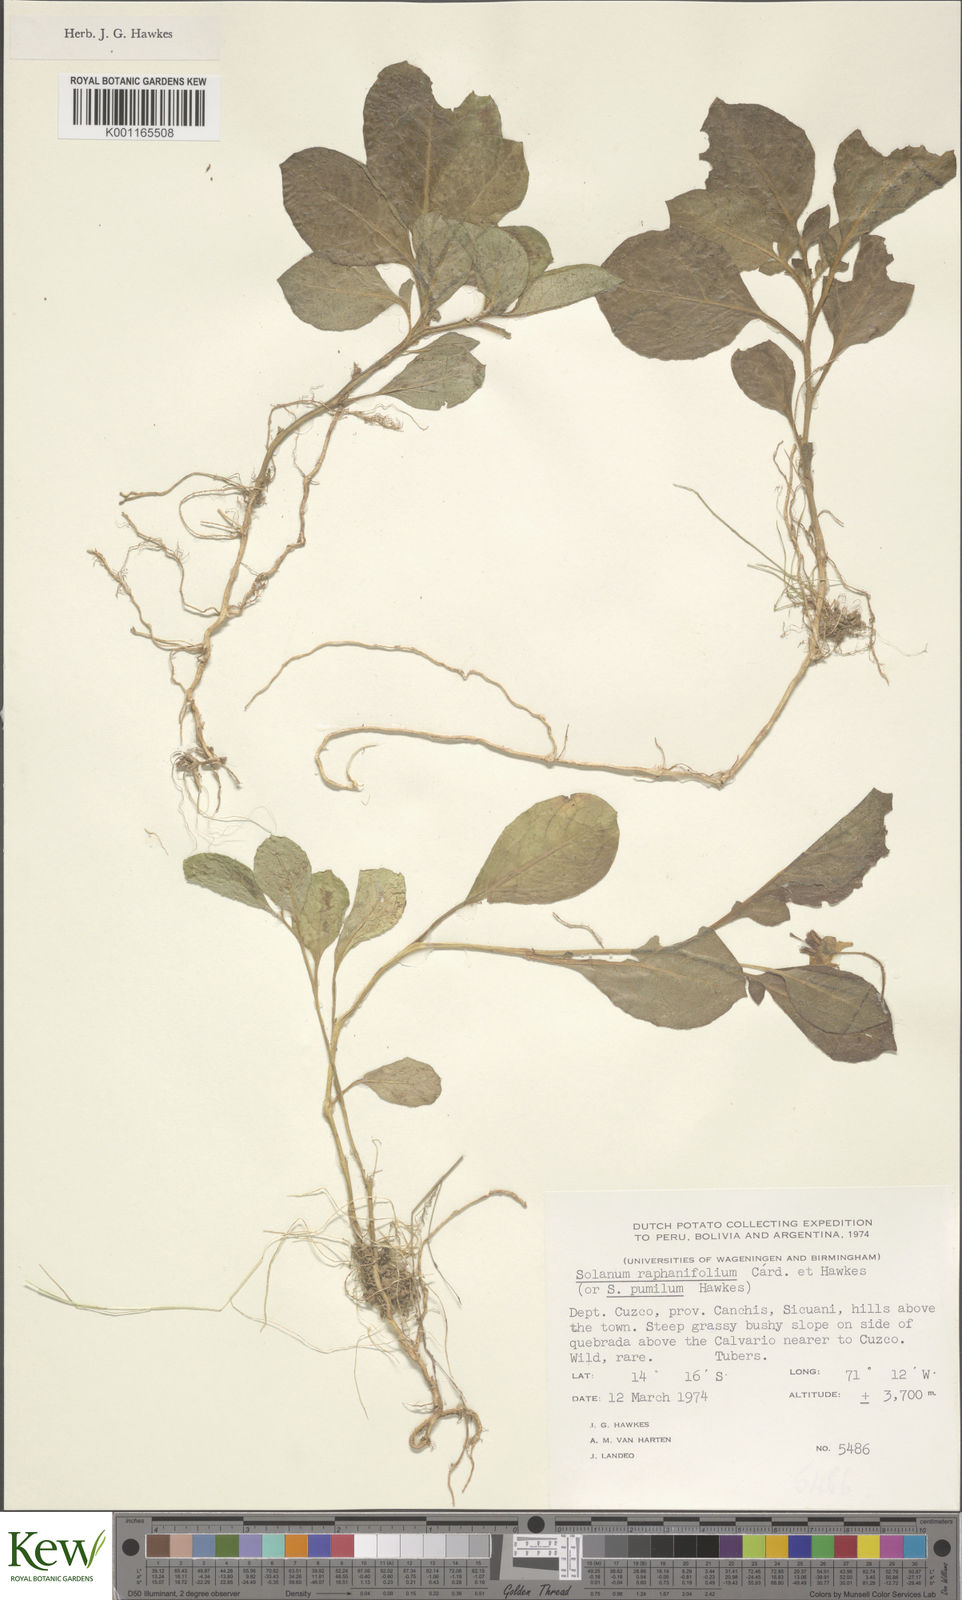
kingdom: Plantae
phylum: Tracheophyta
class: Magnoliopsida
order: Solanales
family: Solanaceae
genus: Solanum
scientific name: Solanum raphanifolium
